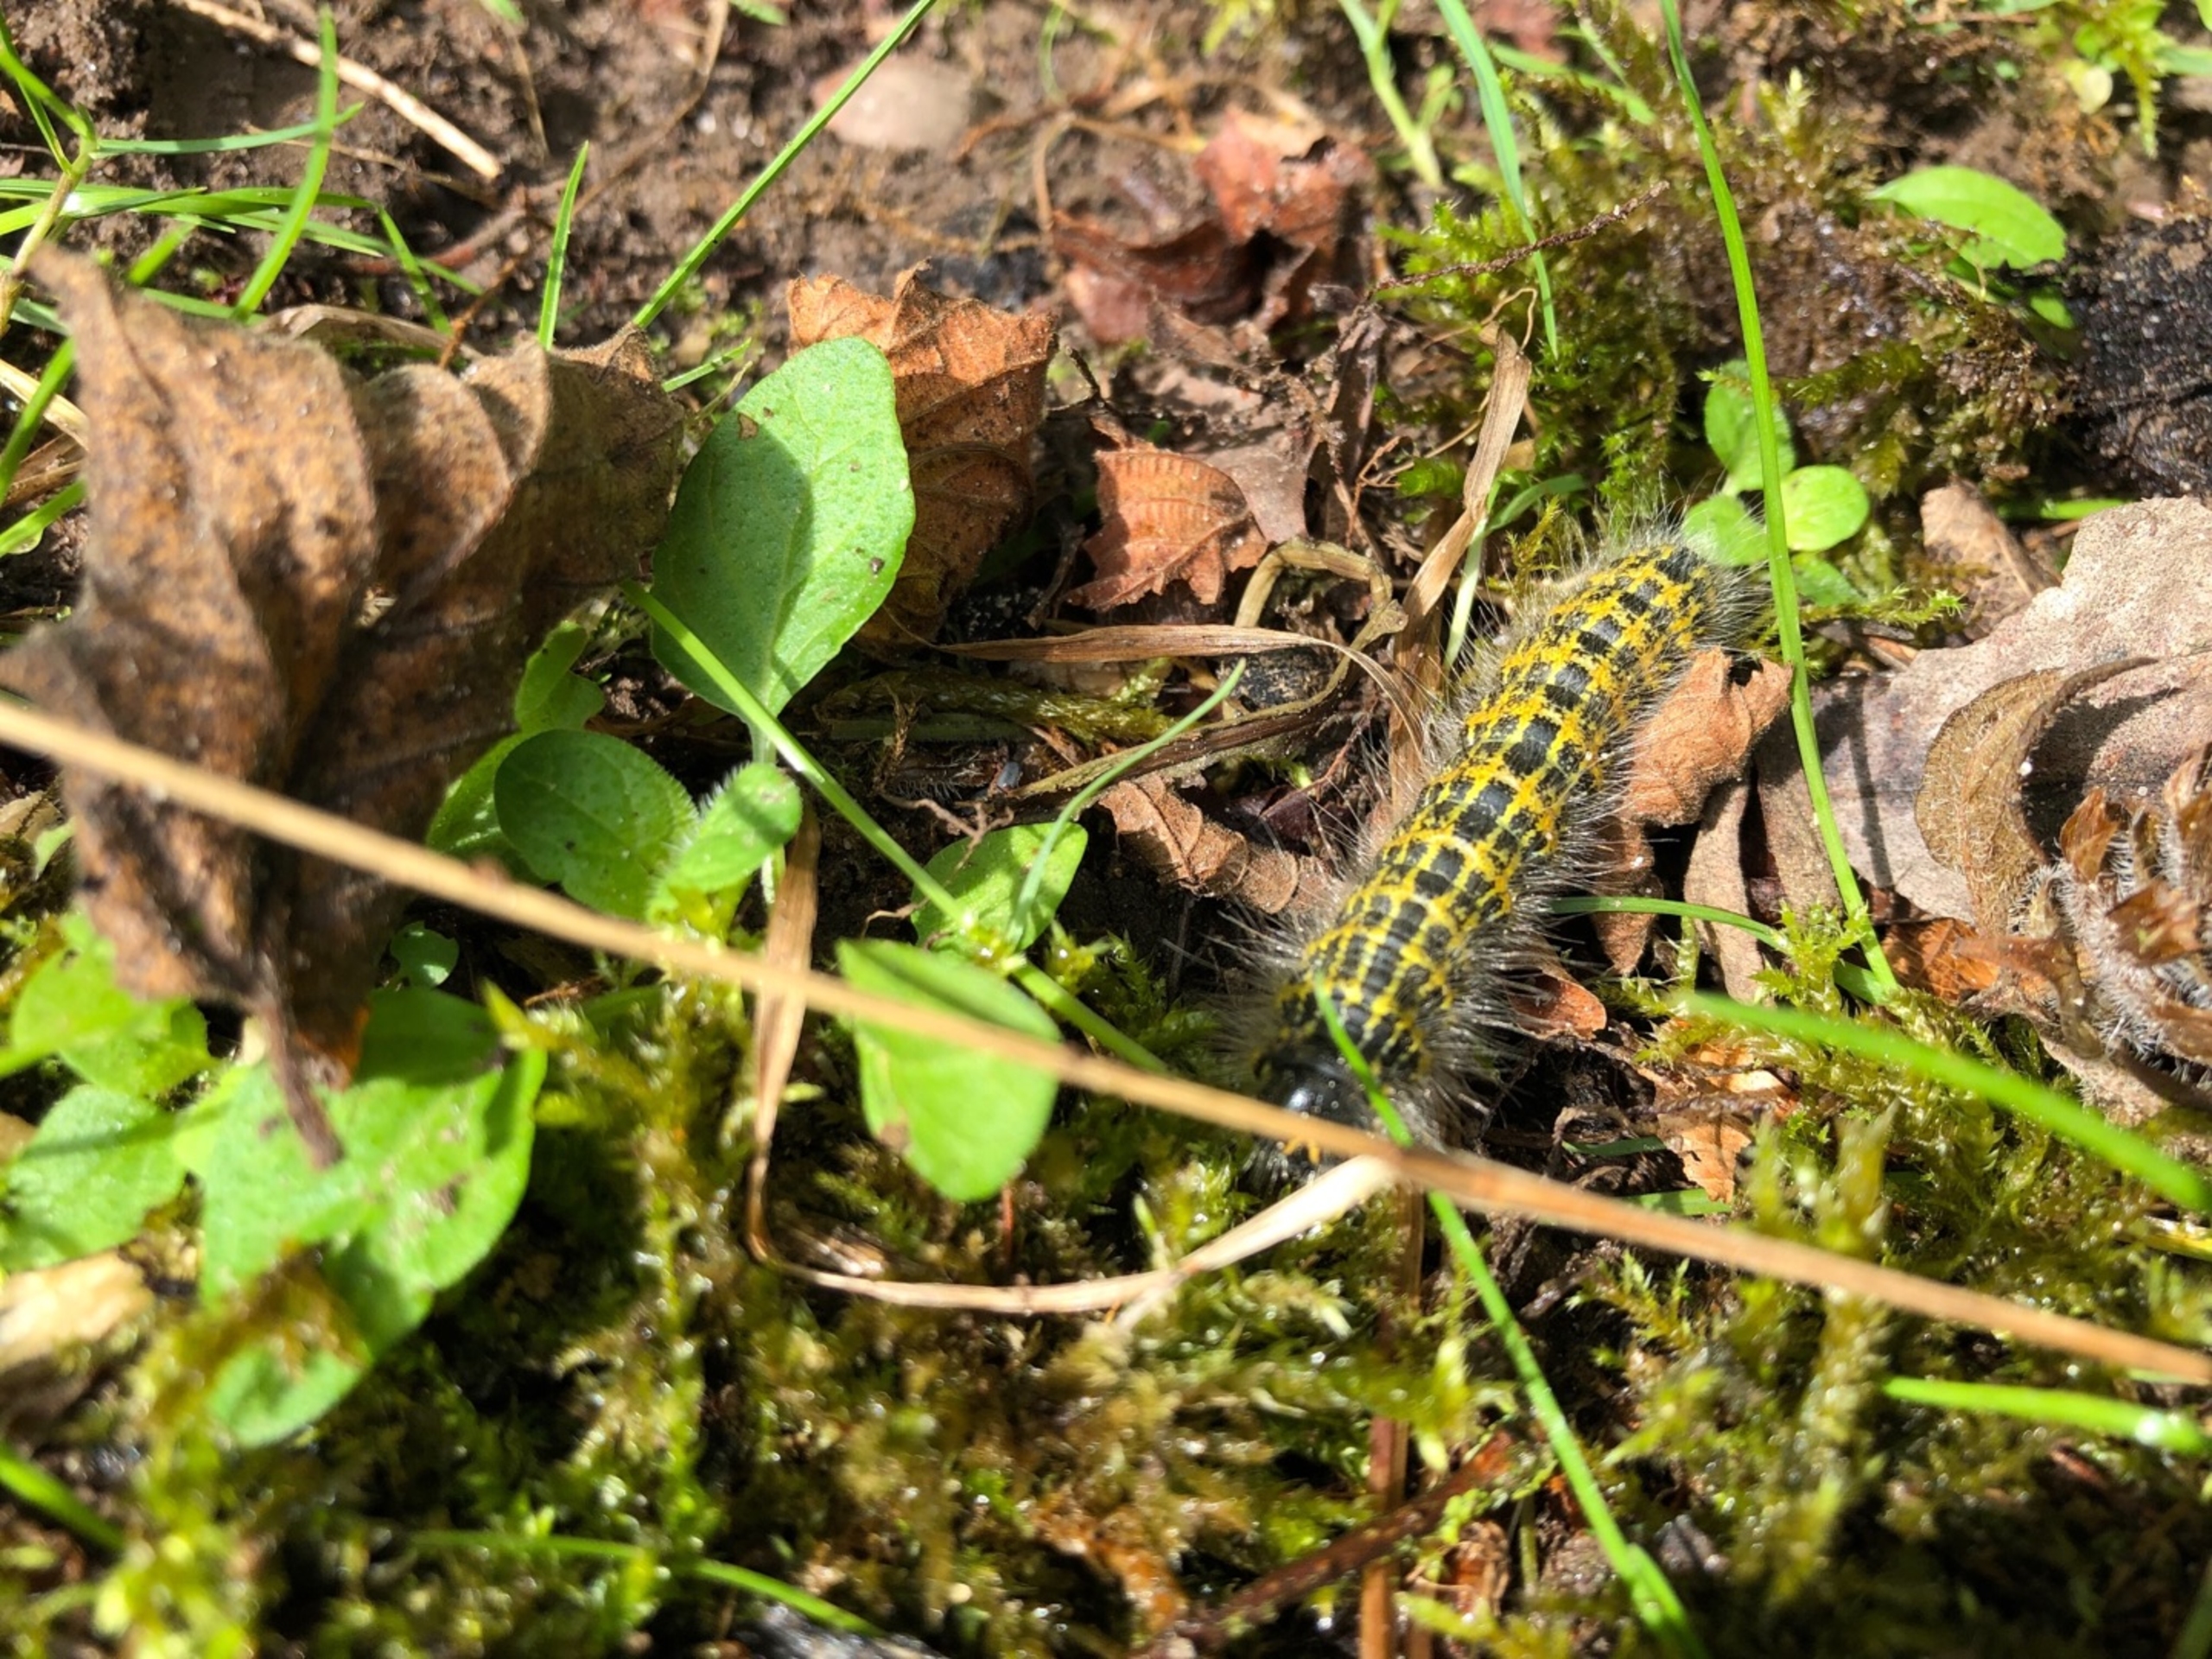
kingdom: Animalia
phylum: Arthropoda
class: Insecta
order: Lepidoptera
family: Notodontidae
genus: Phalera
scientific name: Phalera bucephala
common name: Måneplet
